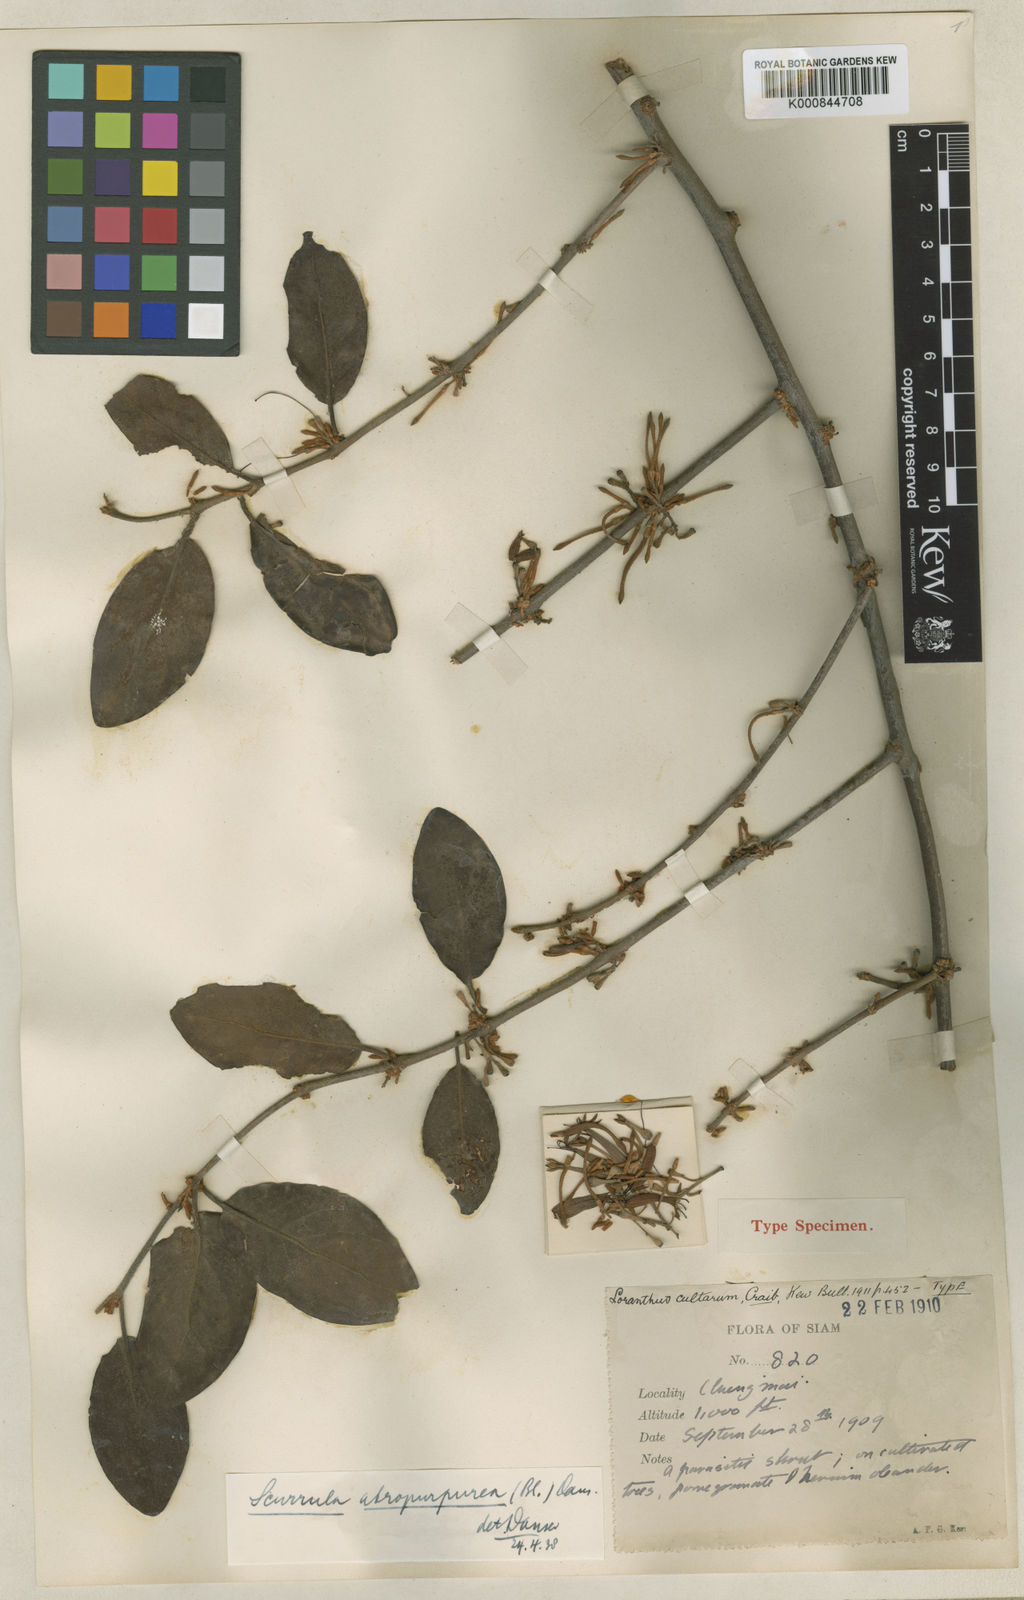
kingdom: Plantae
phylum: Tracheophyta
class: Magnoliopsida
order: Santalales
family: Loranthaceae
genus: Scurrula
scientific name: Scurrula atropurpurea
